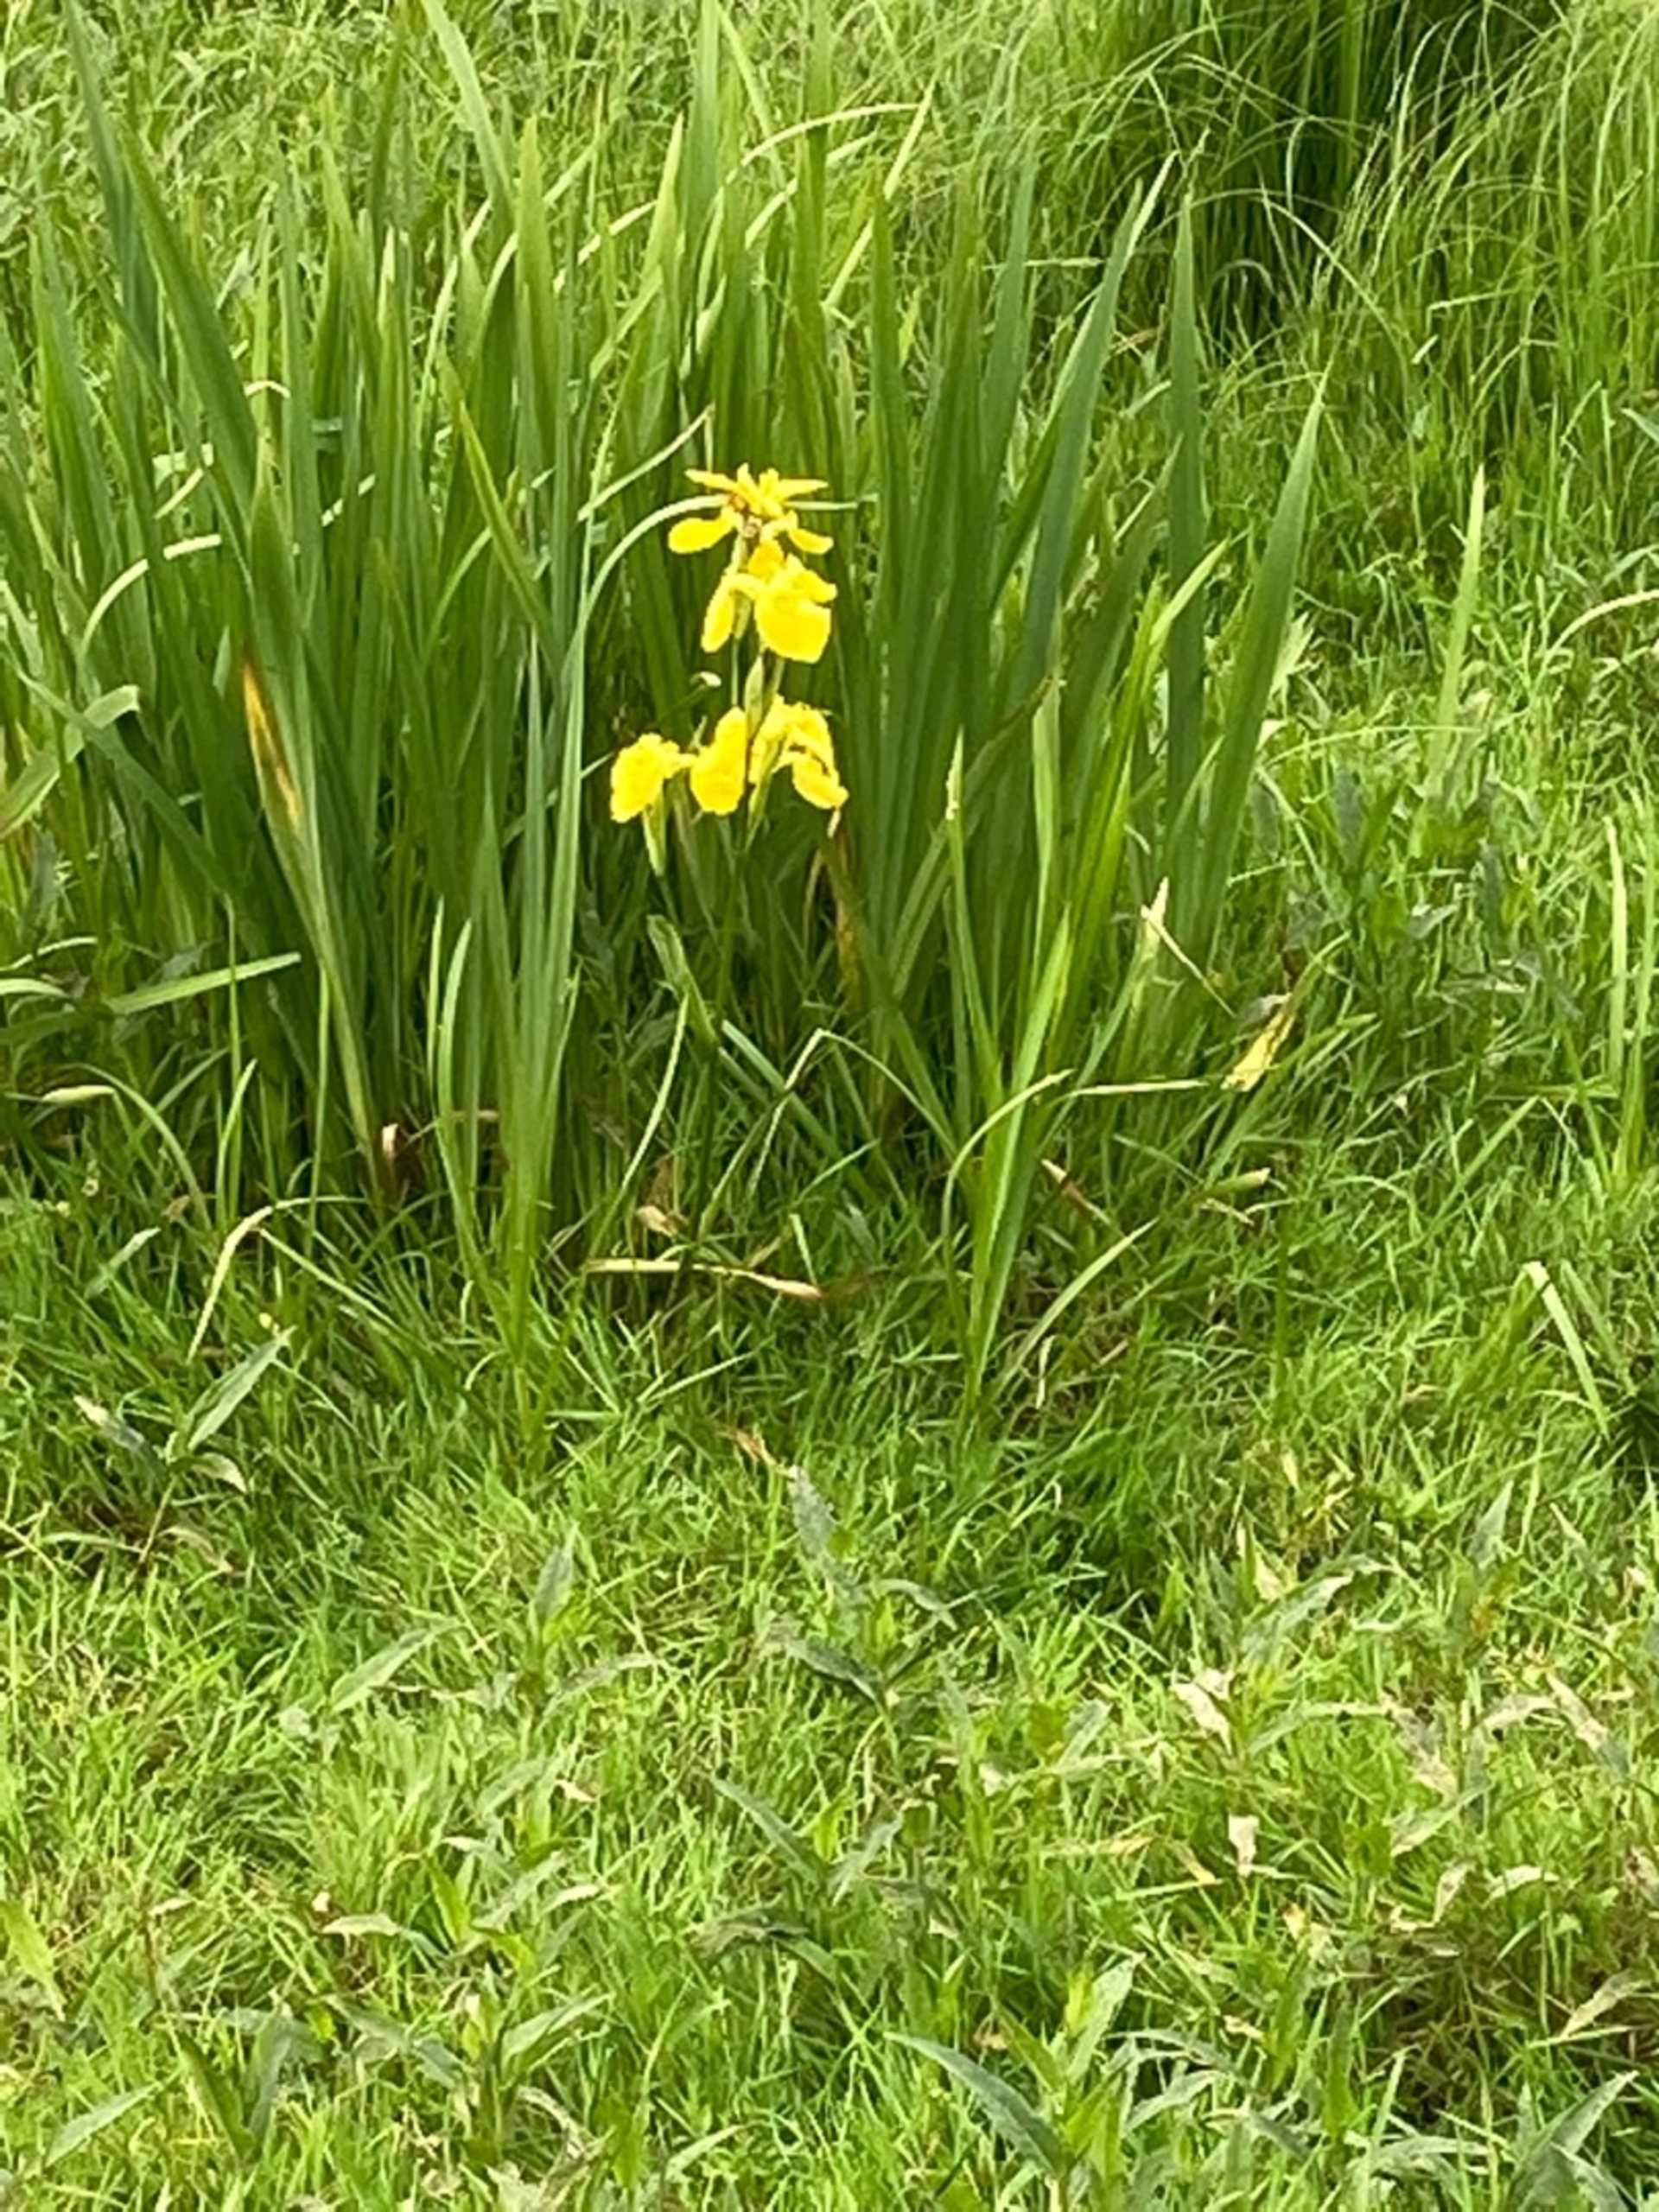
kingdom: Plantae
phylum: Tracheophyta
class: Liliopsida
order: Asparagales
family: Iridaceae
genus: Iris
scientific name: Iris pseudacorus
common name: Gul iris
